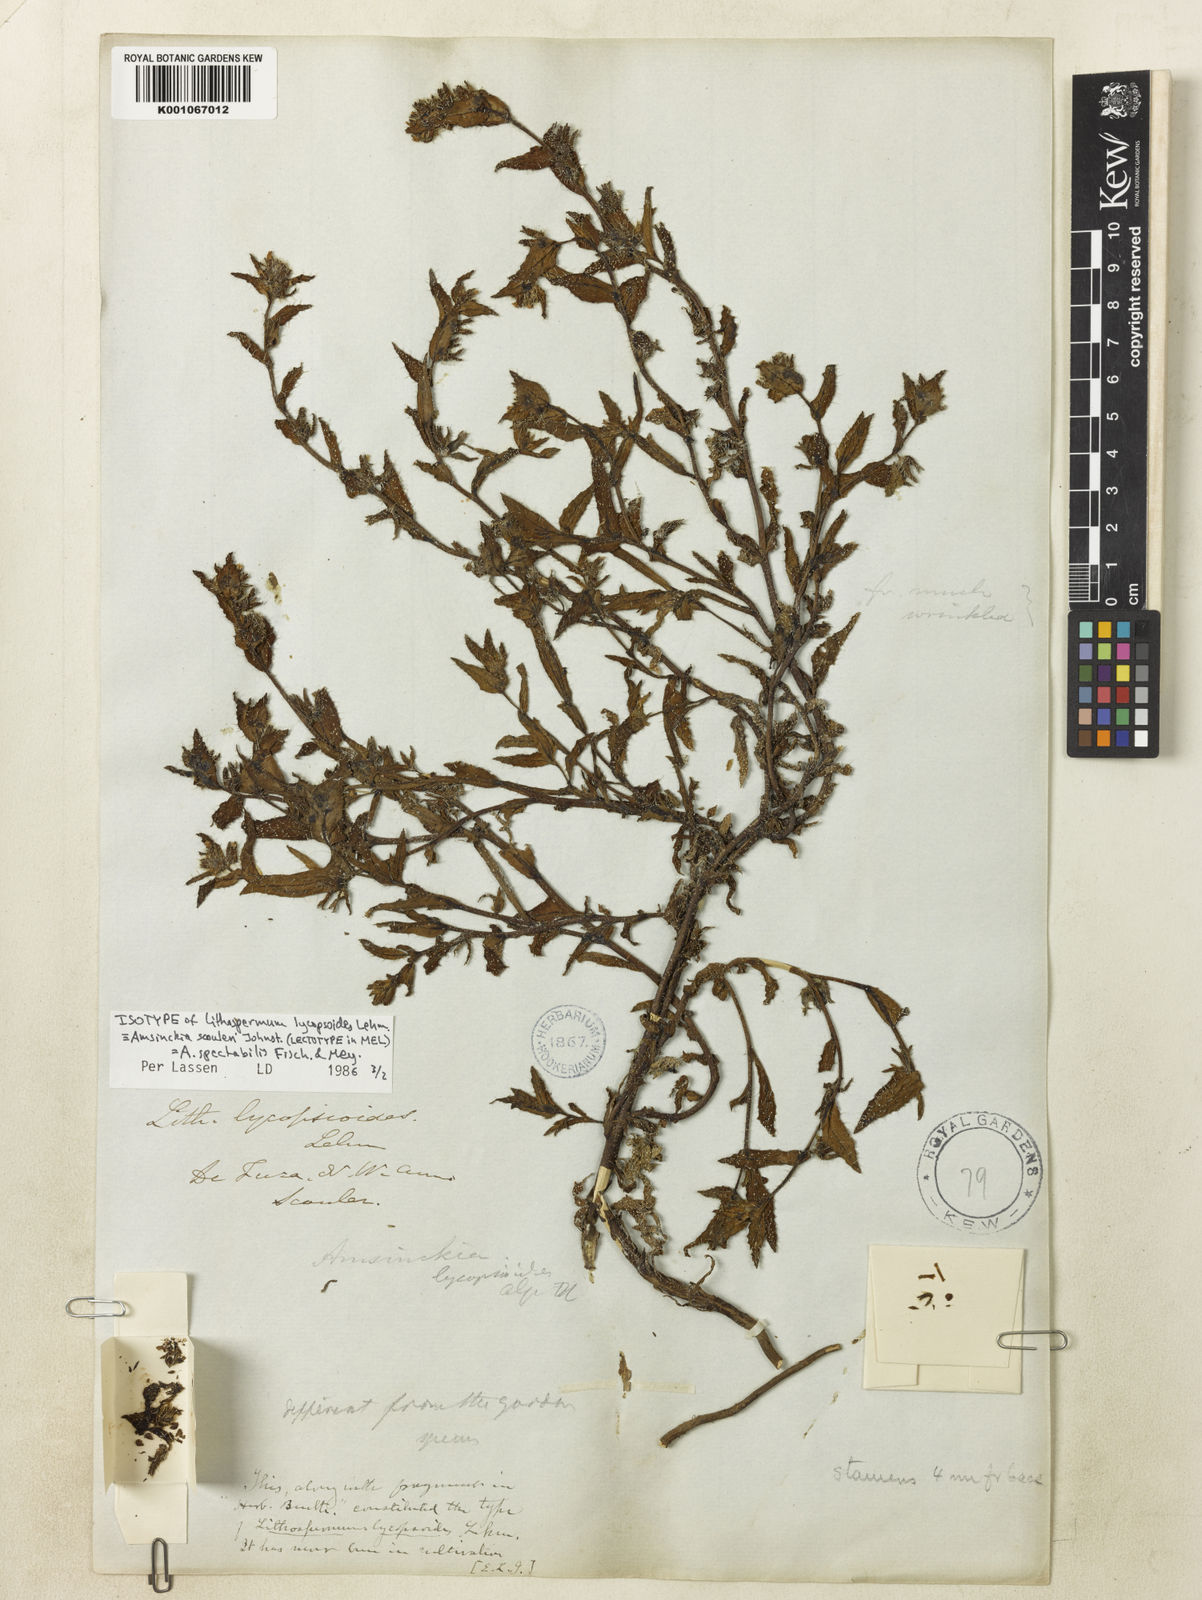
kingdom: Plantae
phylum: Tracheophyta
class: Magnoliopsida
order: Boraginales
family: Boraginaceae
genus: Amsinckia
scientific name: Amsinckia spectabilis
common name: Seaside fiddleneck
